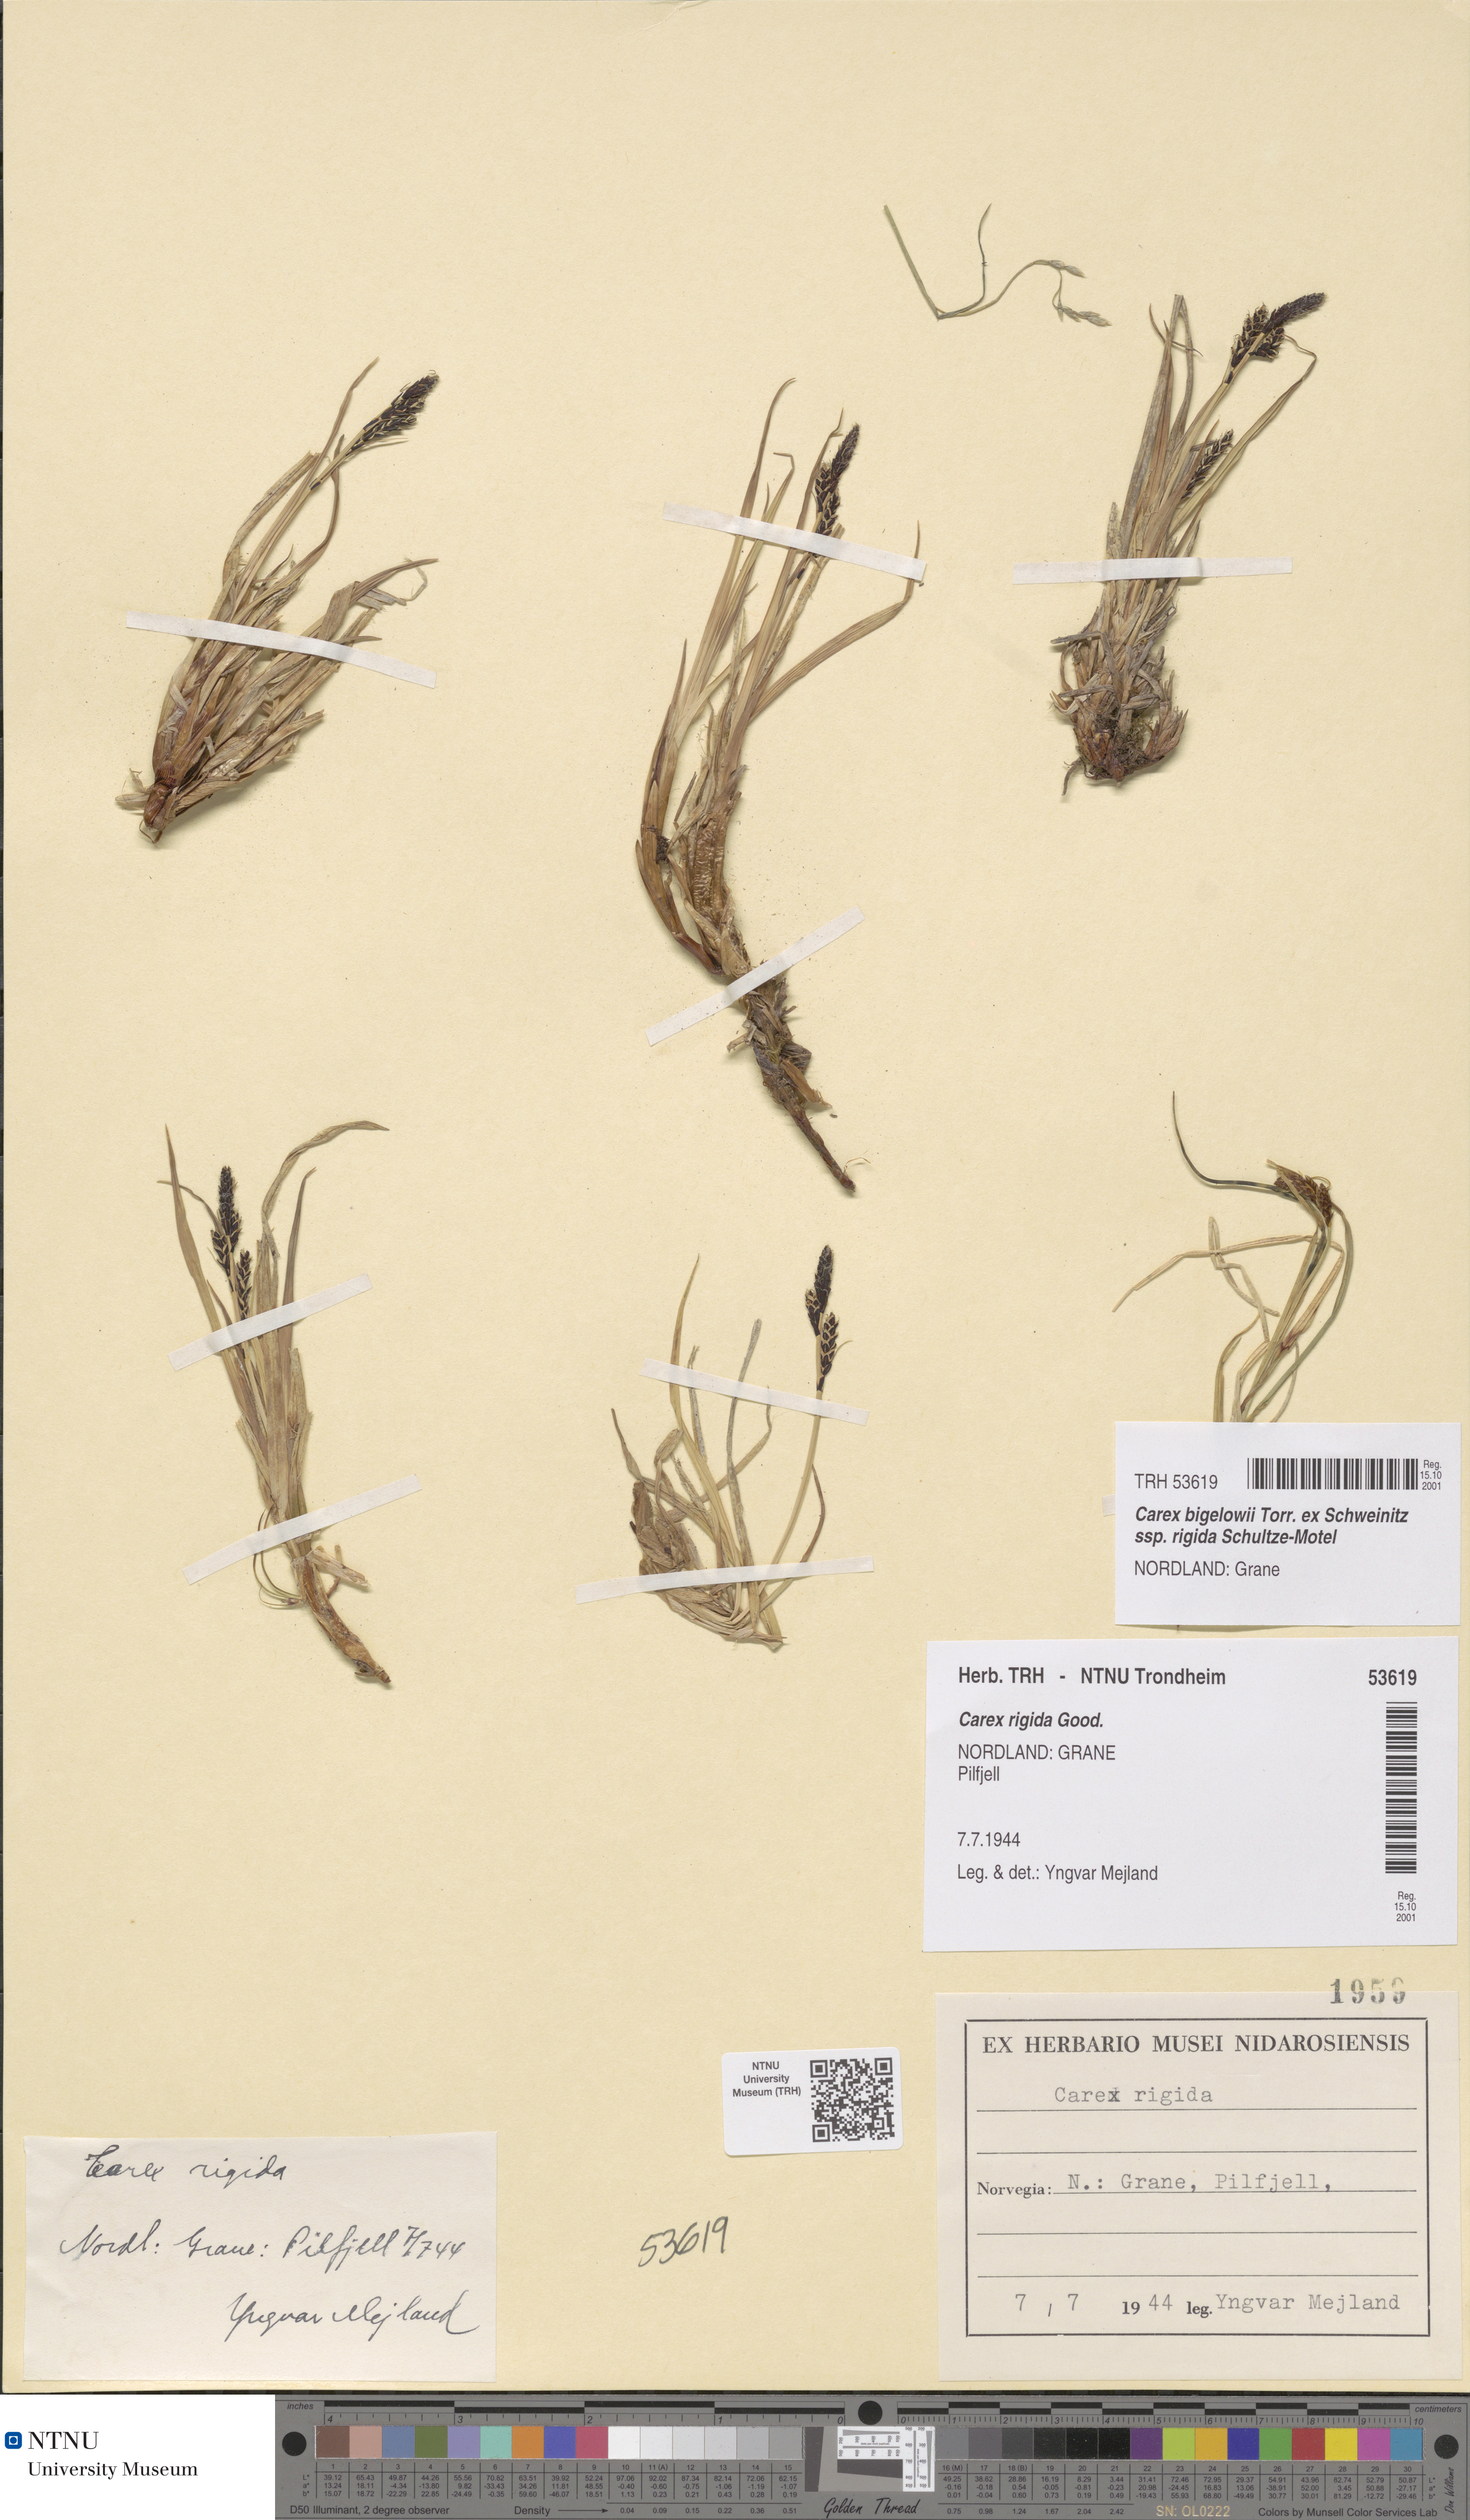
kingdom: Plantae
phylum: Tracheophyta
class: Liliopsida
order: Poales
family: Cyperaceae
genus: Carex
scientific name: Carex dacica
